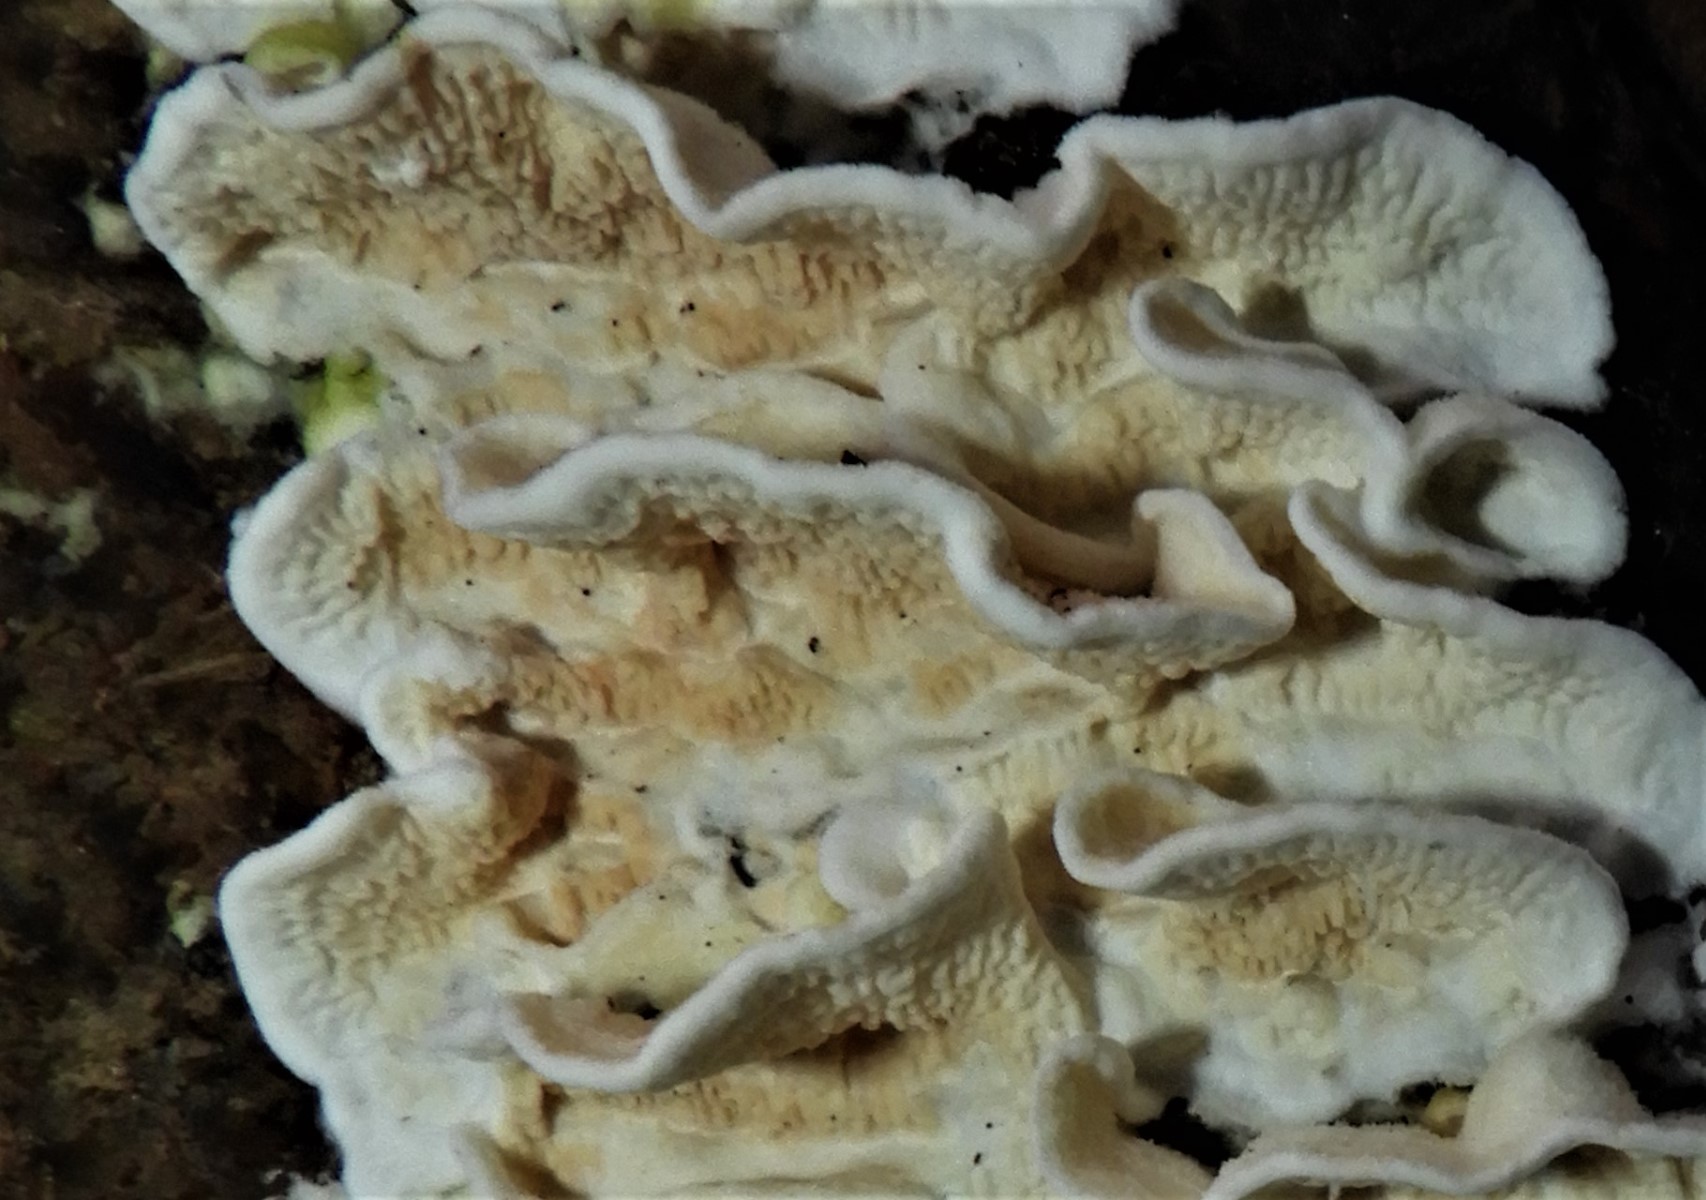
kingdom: Fungi
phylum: Basidiomycota
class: Agaricomycetes
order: Polyporales
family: Irpicaceae
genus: Byssomerulius
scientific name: Byssomerulius corium
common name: læder-åresvamp
